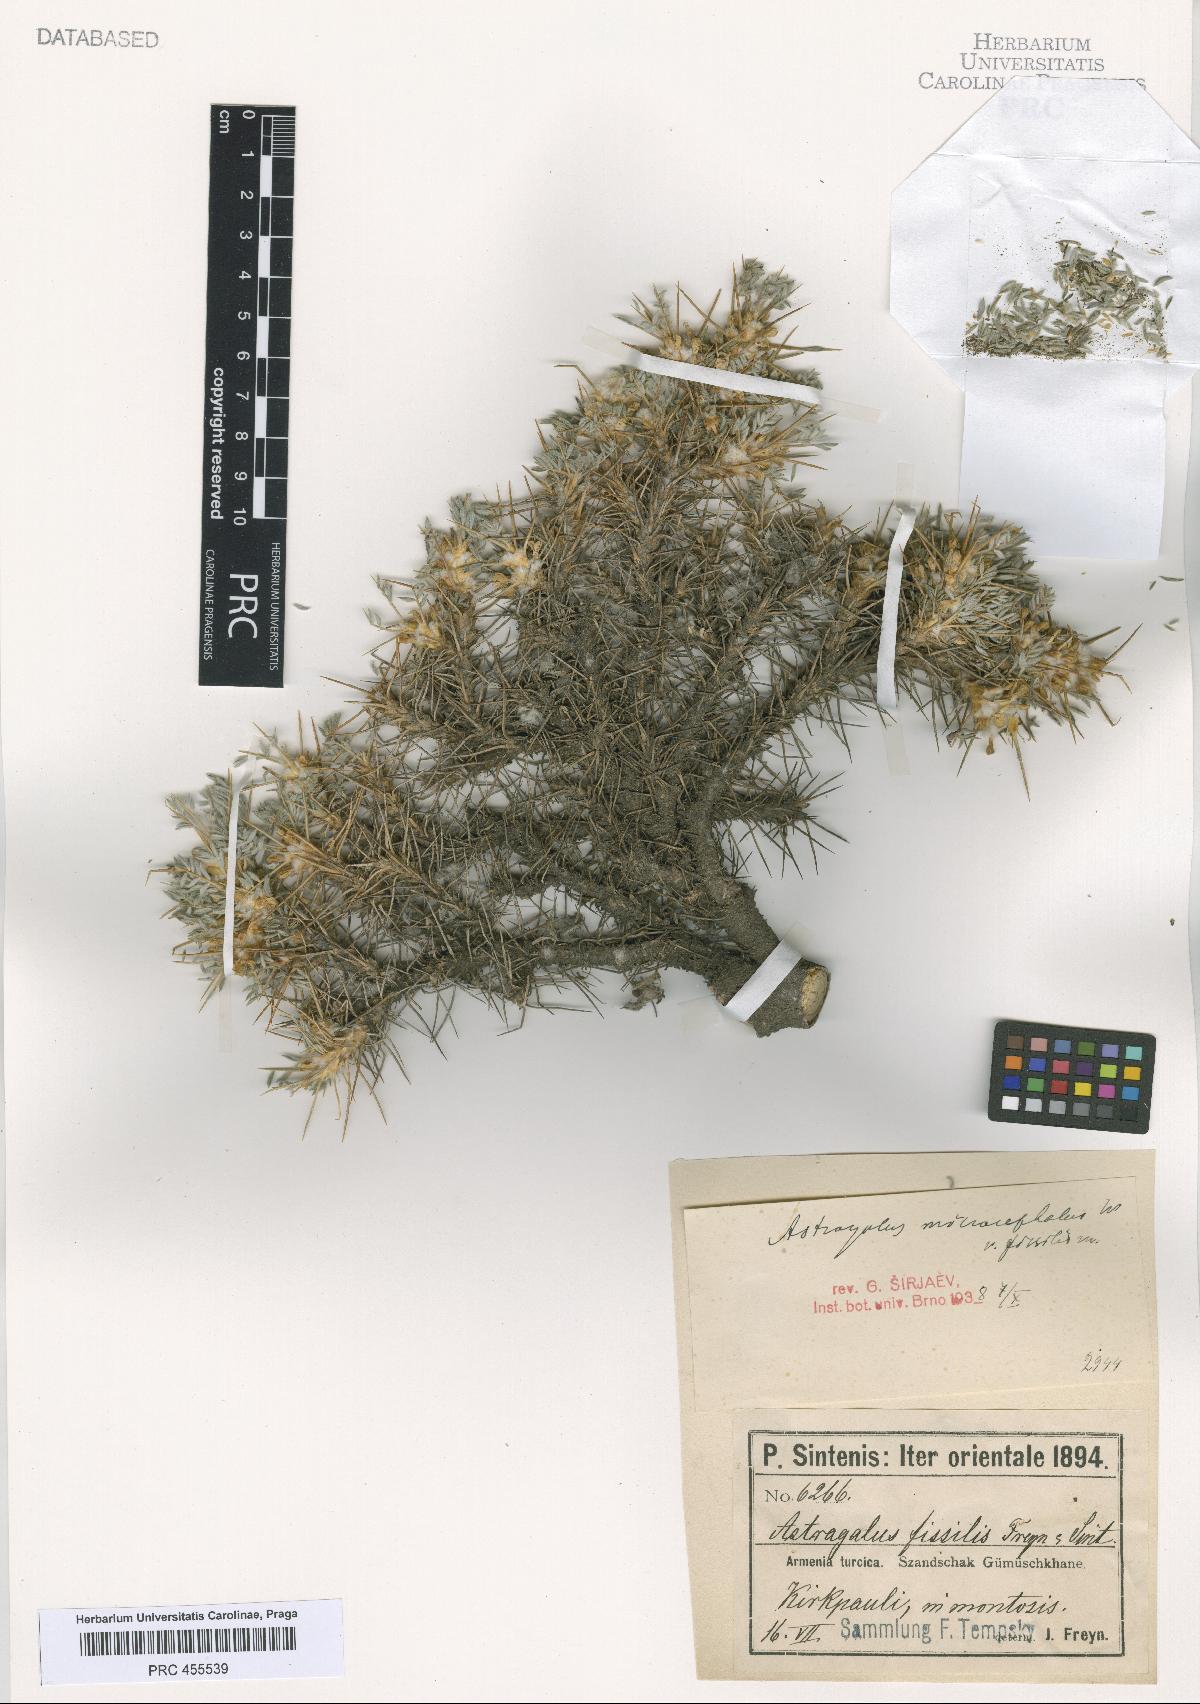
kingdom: Plantae
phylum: Tracheophyta
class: Magnoliopsida
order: Fabales
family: Fabaceae
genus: Astragalus
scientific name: Astragalus microcephalus
